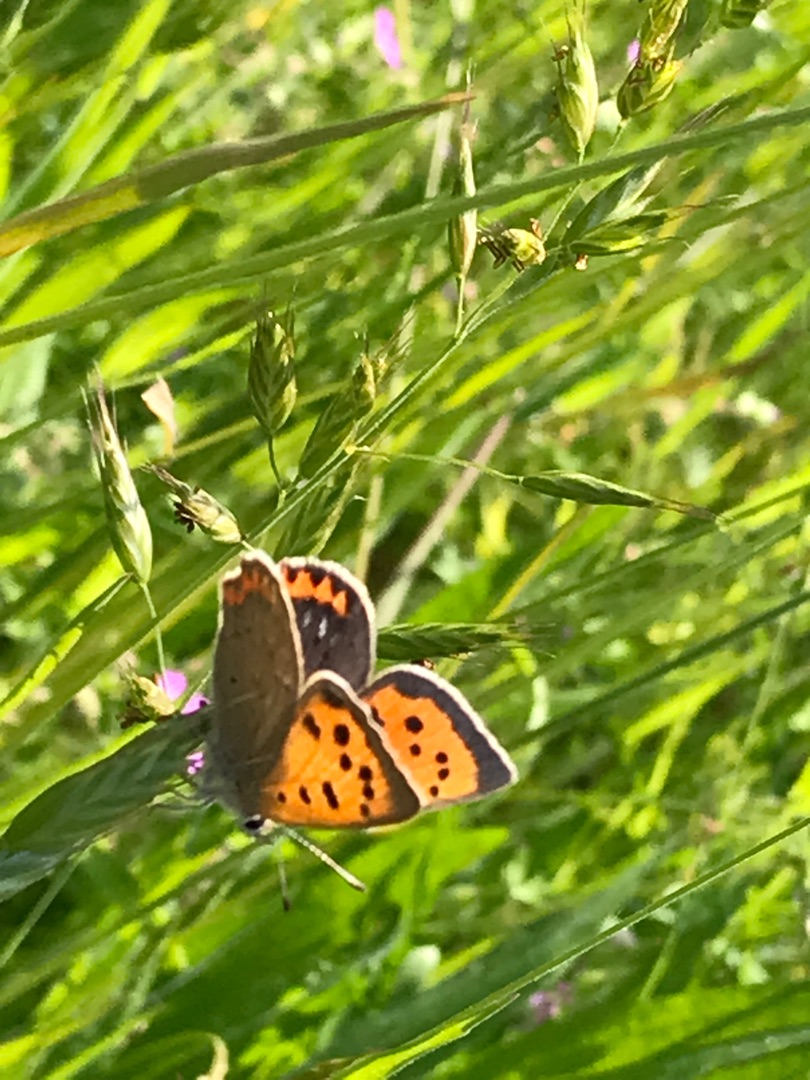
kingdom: Animalia
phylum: Arthropoda
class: Insecta
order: Lepidoptera
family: Lycaenidae
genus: Lycaena
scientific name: Lycaena phlaeas
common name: Lille ildfugl
